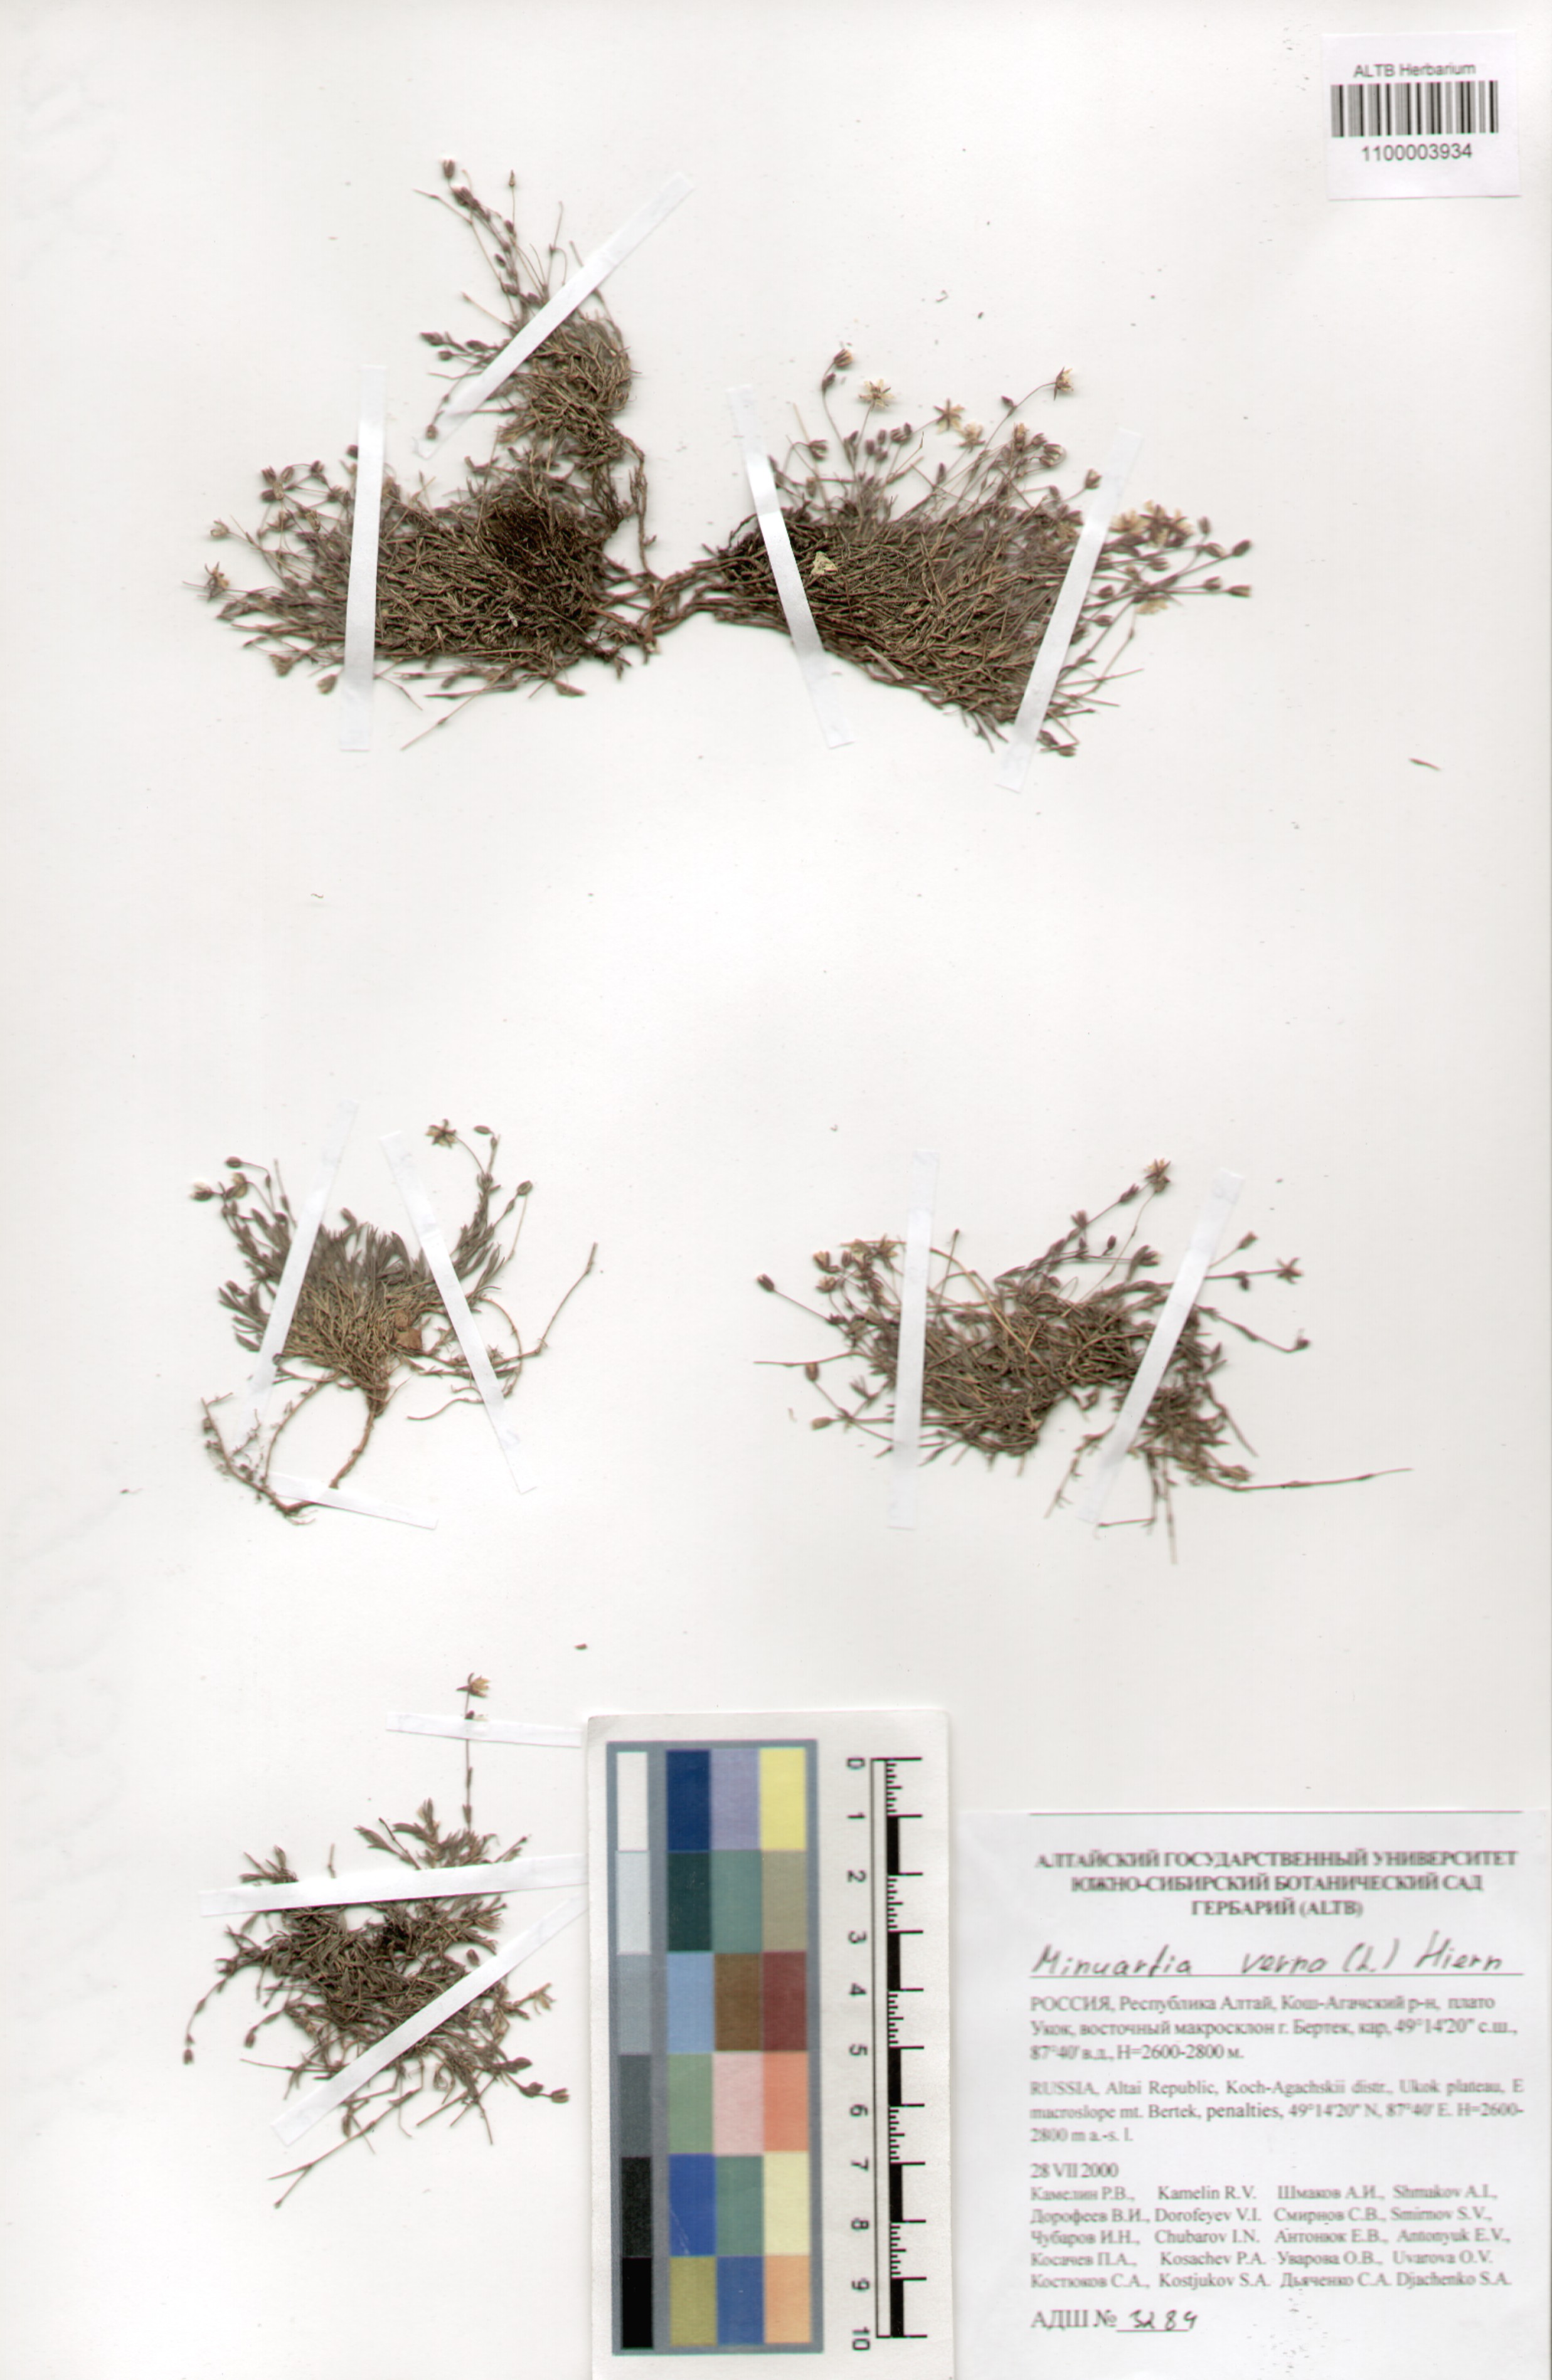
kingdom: Plantae
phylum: Tracheophyta
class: Magnoliopsida
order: Caryophyllales
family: Caryophyllaceae
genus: Sabulina
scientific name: Sabulina verna
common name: Spring sandwort
